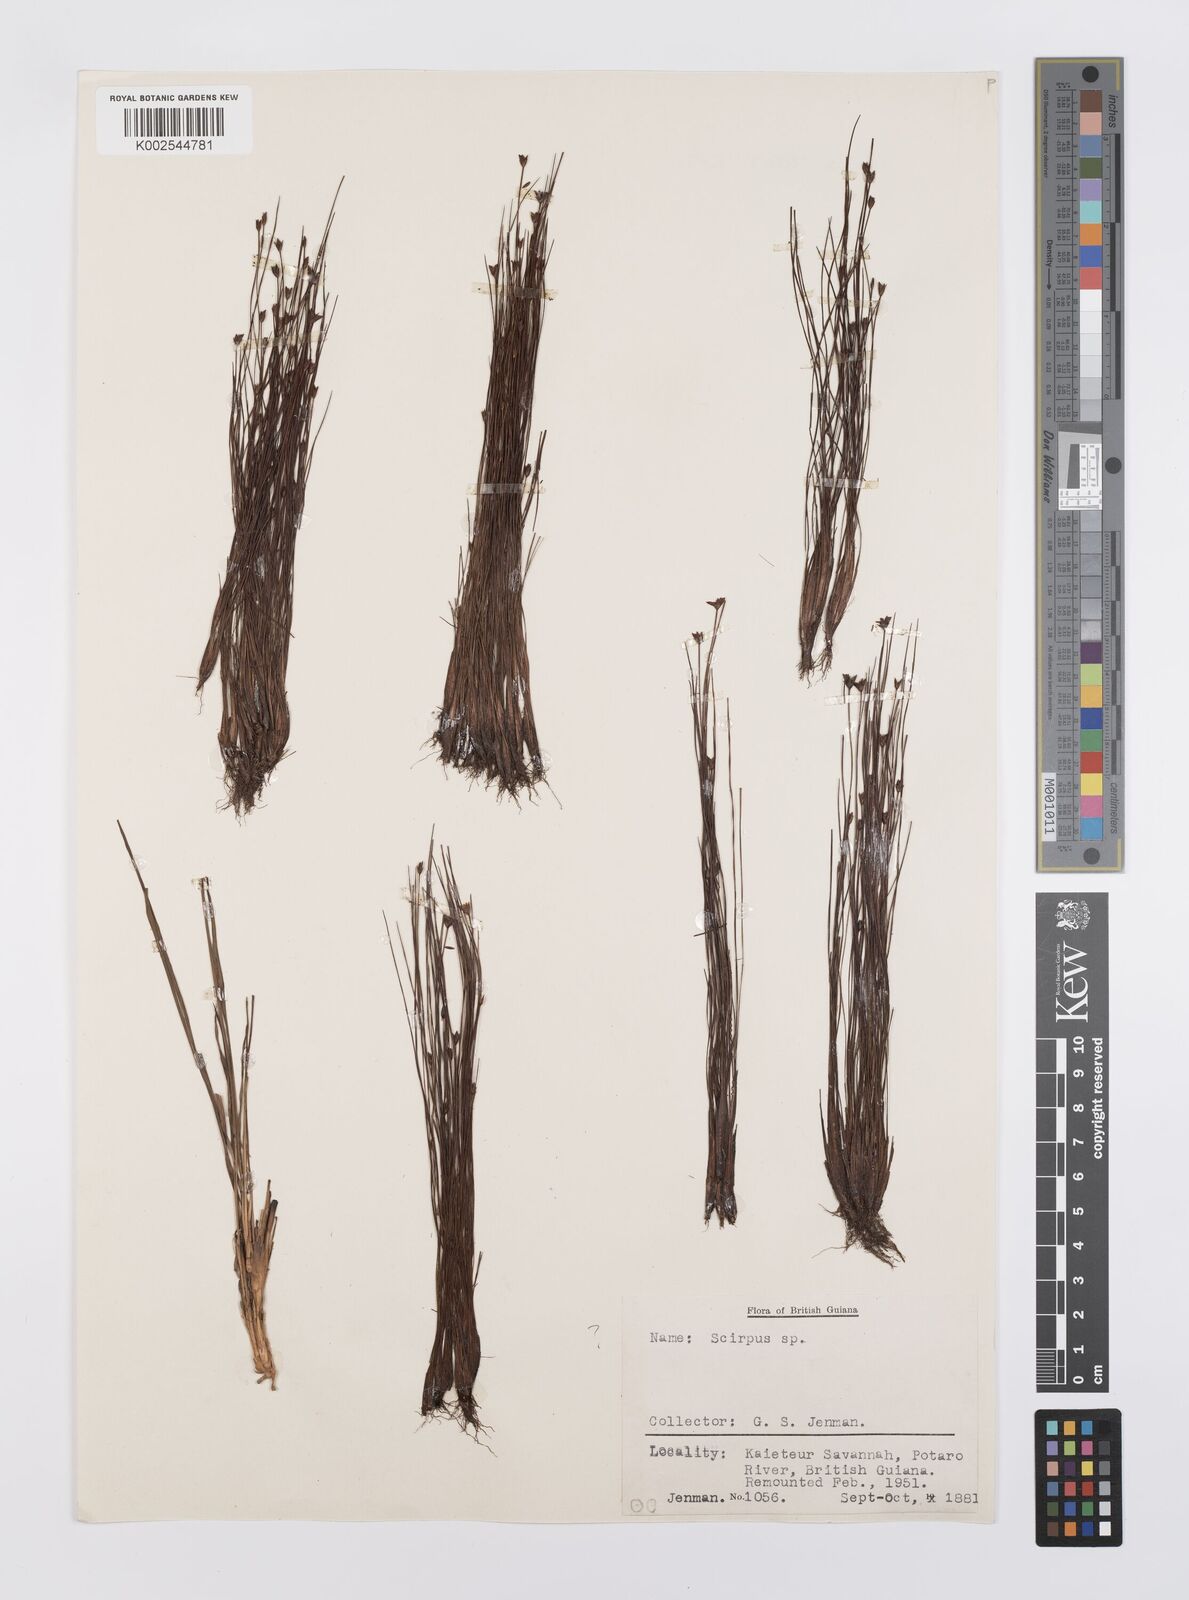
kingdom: Plantae
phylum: Tracheophyta
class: Liliopsida
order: Poales
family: Cyperaceae
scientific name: Cyperaceae
